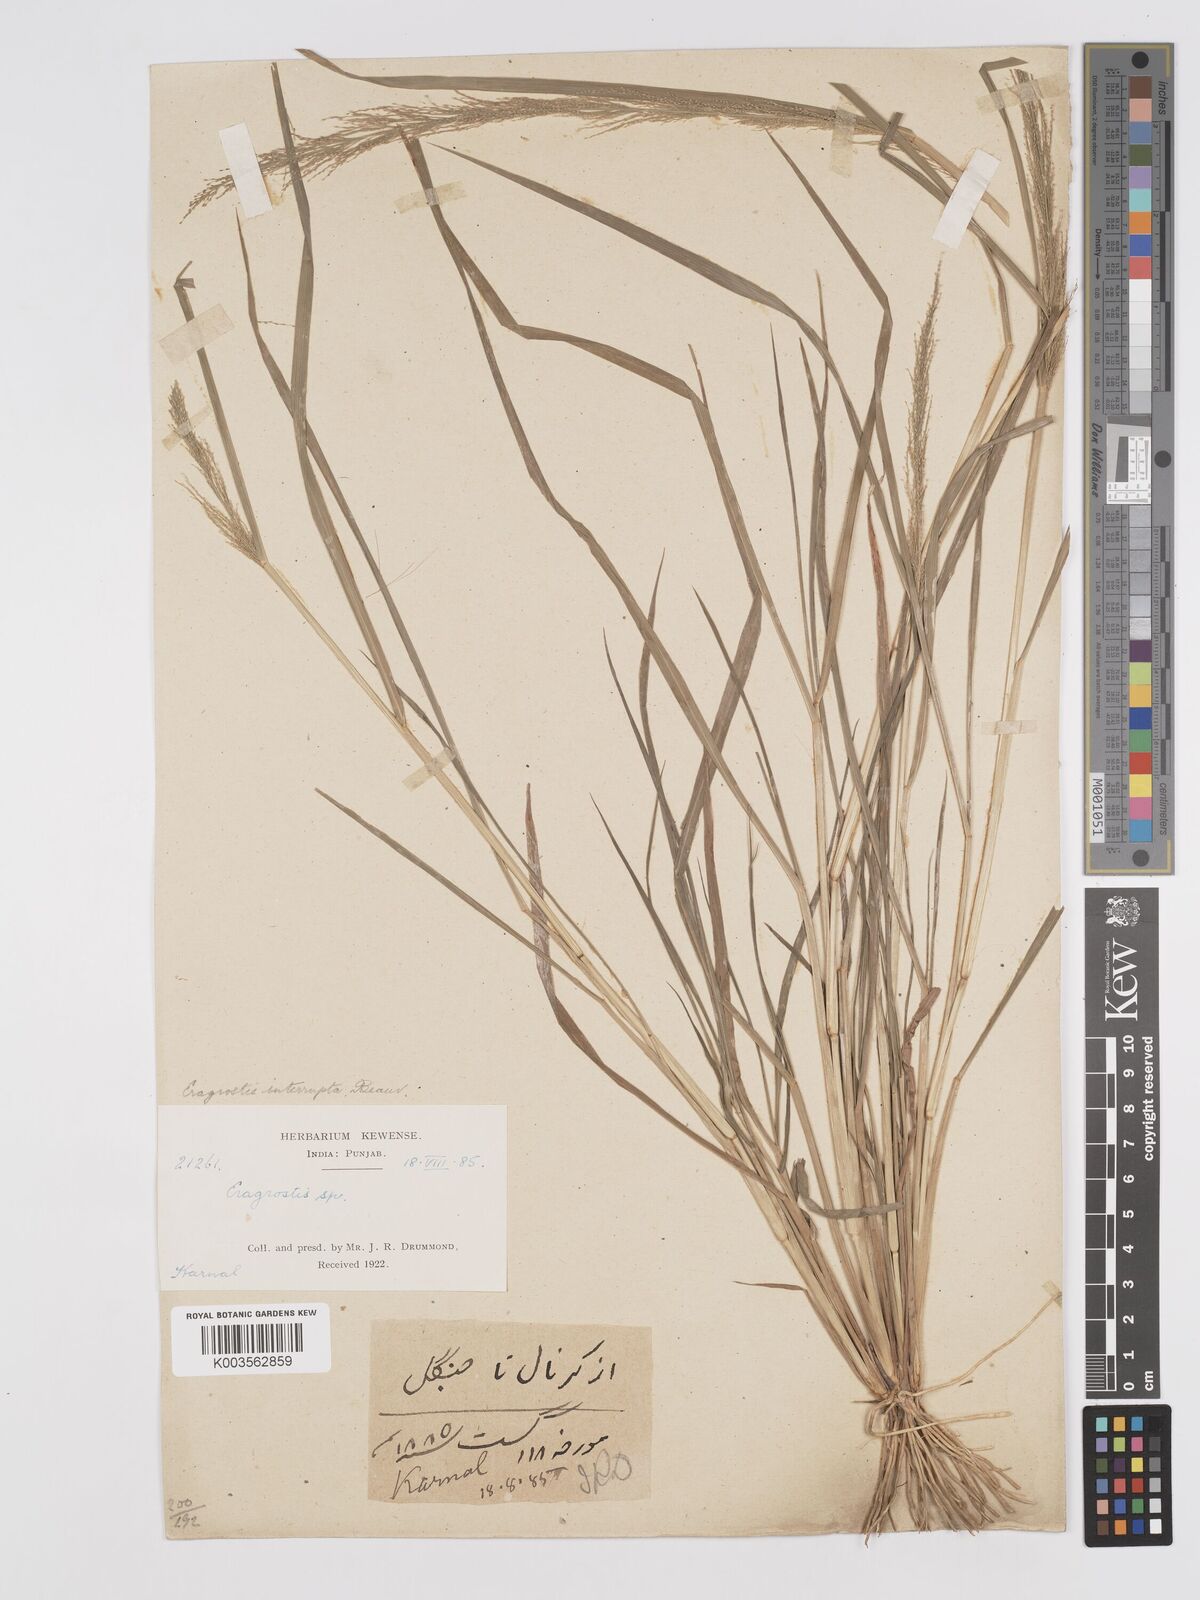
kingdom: Plantae
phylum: Tracheophyta
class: Liliopsida
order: Poales
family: Poaceae
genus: Eragrostis
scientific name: Eragrostis japonica
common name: Pond lovegrass
